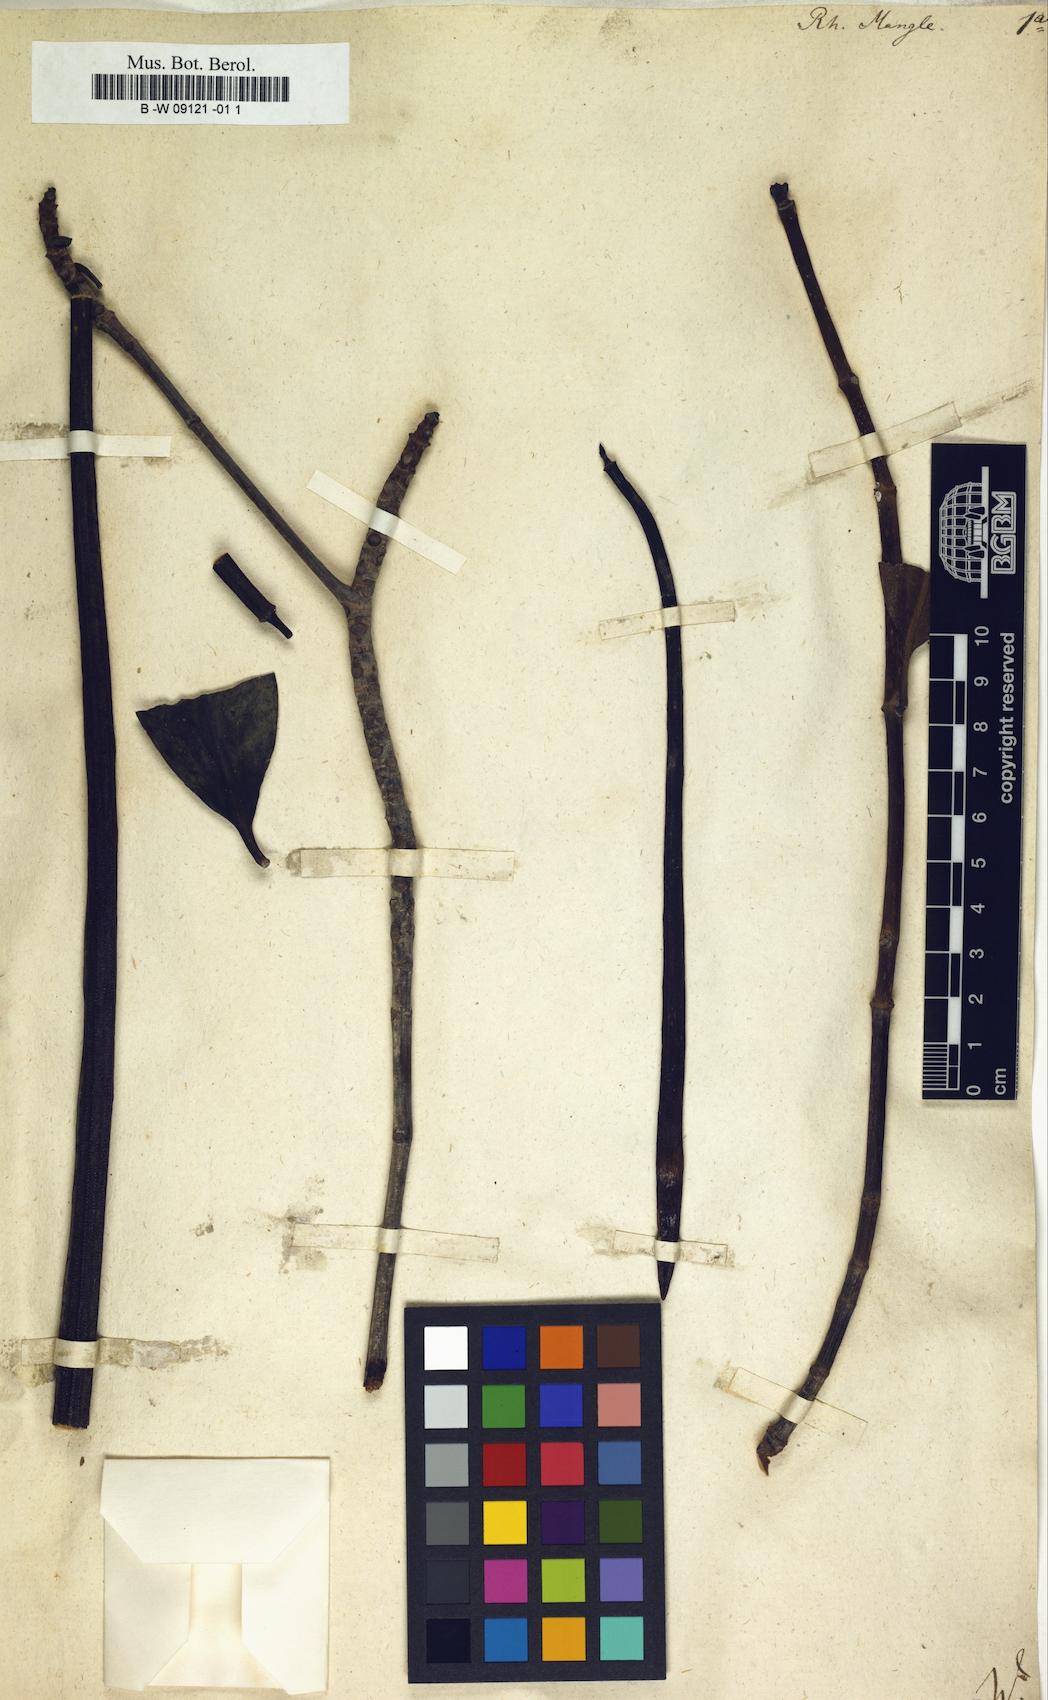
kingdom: Plantae
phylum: Tracheophyta
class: Magnoliopsida
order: Malpighiales
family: Rhizophoraceae
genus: Rhizophora
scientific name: Rhizophora mangle
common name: Red mangrove
